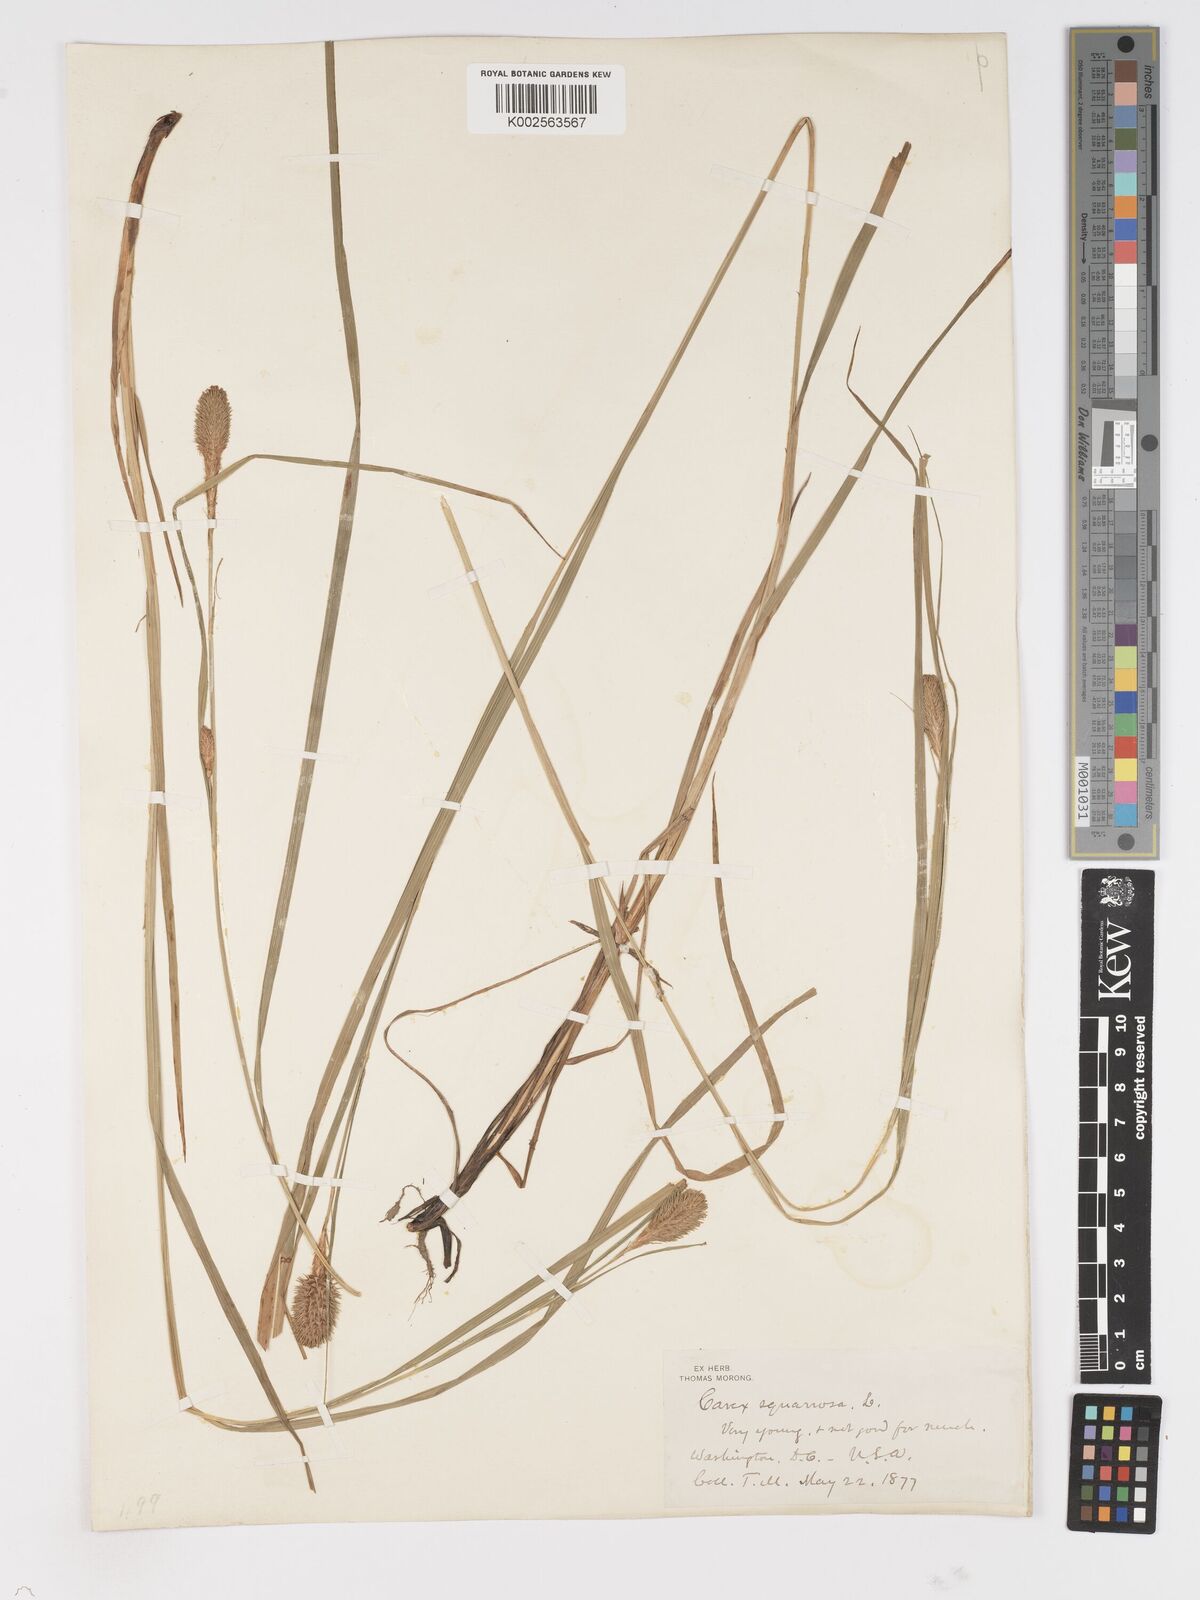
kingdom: Plantae
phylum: Tracheophyta
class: Liliopsida
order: Poales
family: Cyperaceae
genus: Carex
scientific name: Carex squarrosa
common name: Narrow-leaved cattail sedge
